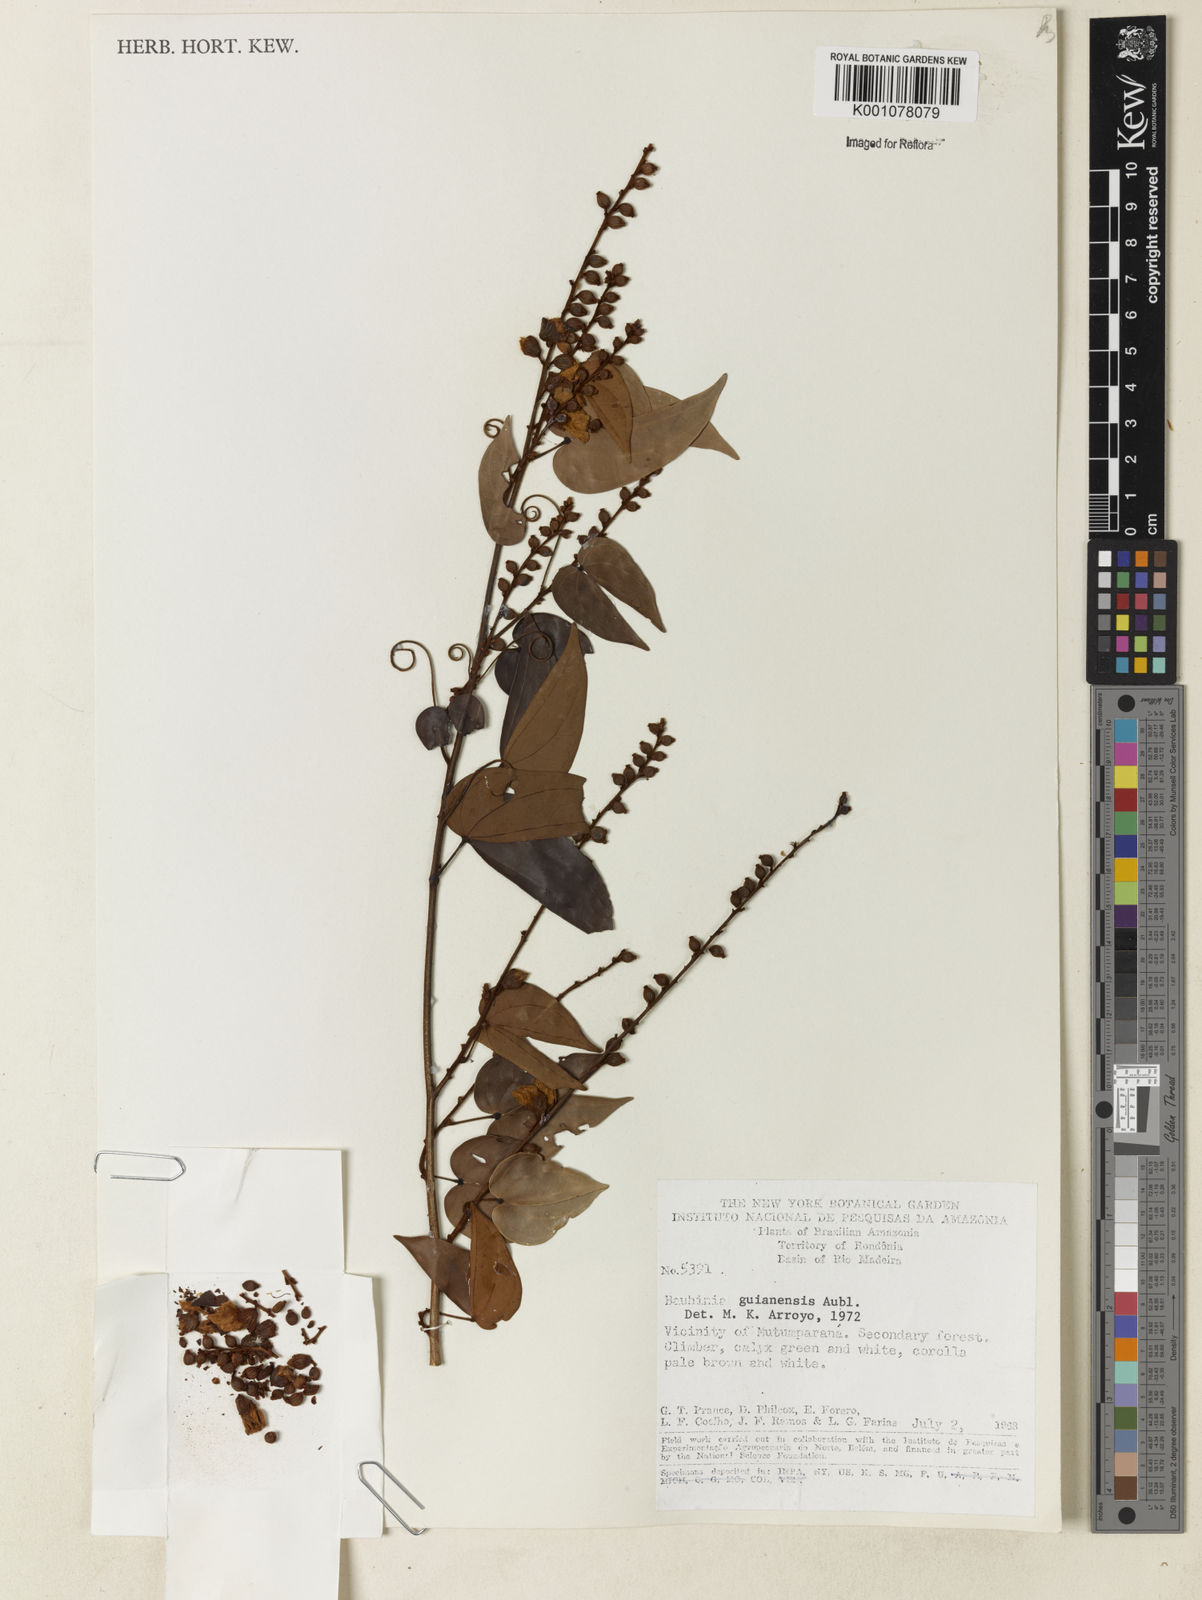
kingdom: Plantae
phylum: Tracheophyta
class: Magnoliopsida
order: Fabales
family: Fabaceae
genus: Schnella
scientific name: Schnella guianensis
